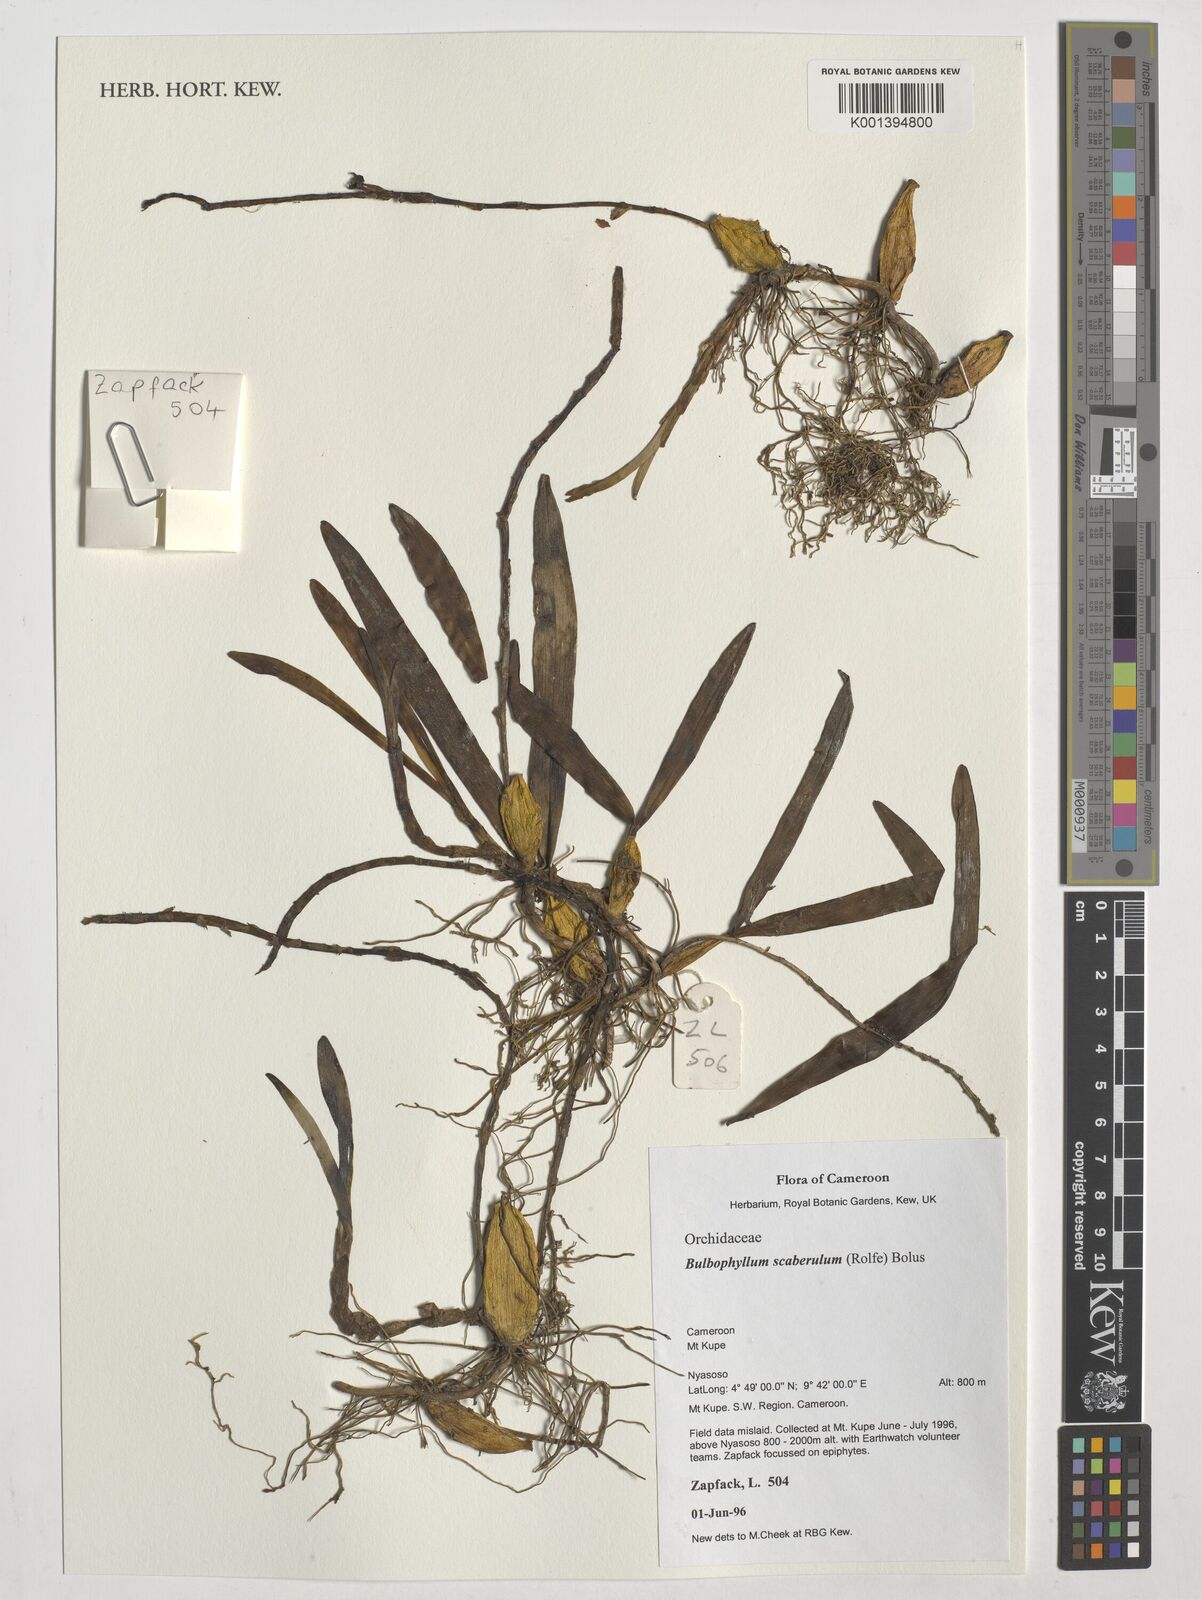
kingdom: Plantae
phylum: Tracheophyta
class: Liliopsida
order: Asparagales
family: Orchidaceae
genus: Bulbophyllum
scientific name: Bulbophyllum scaberulum
